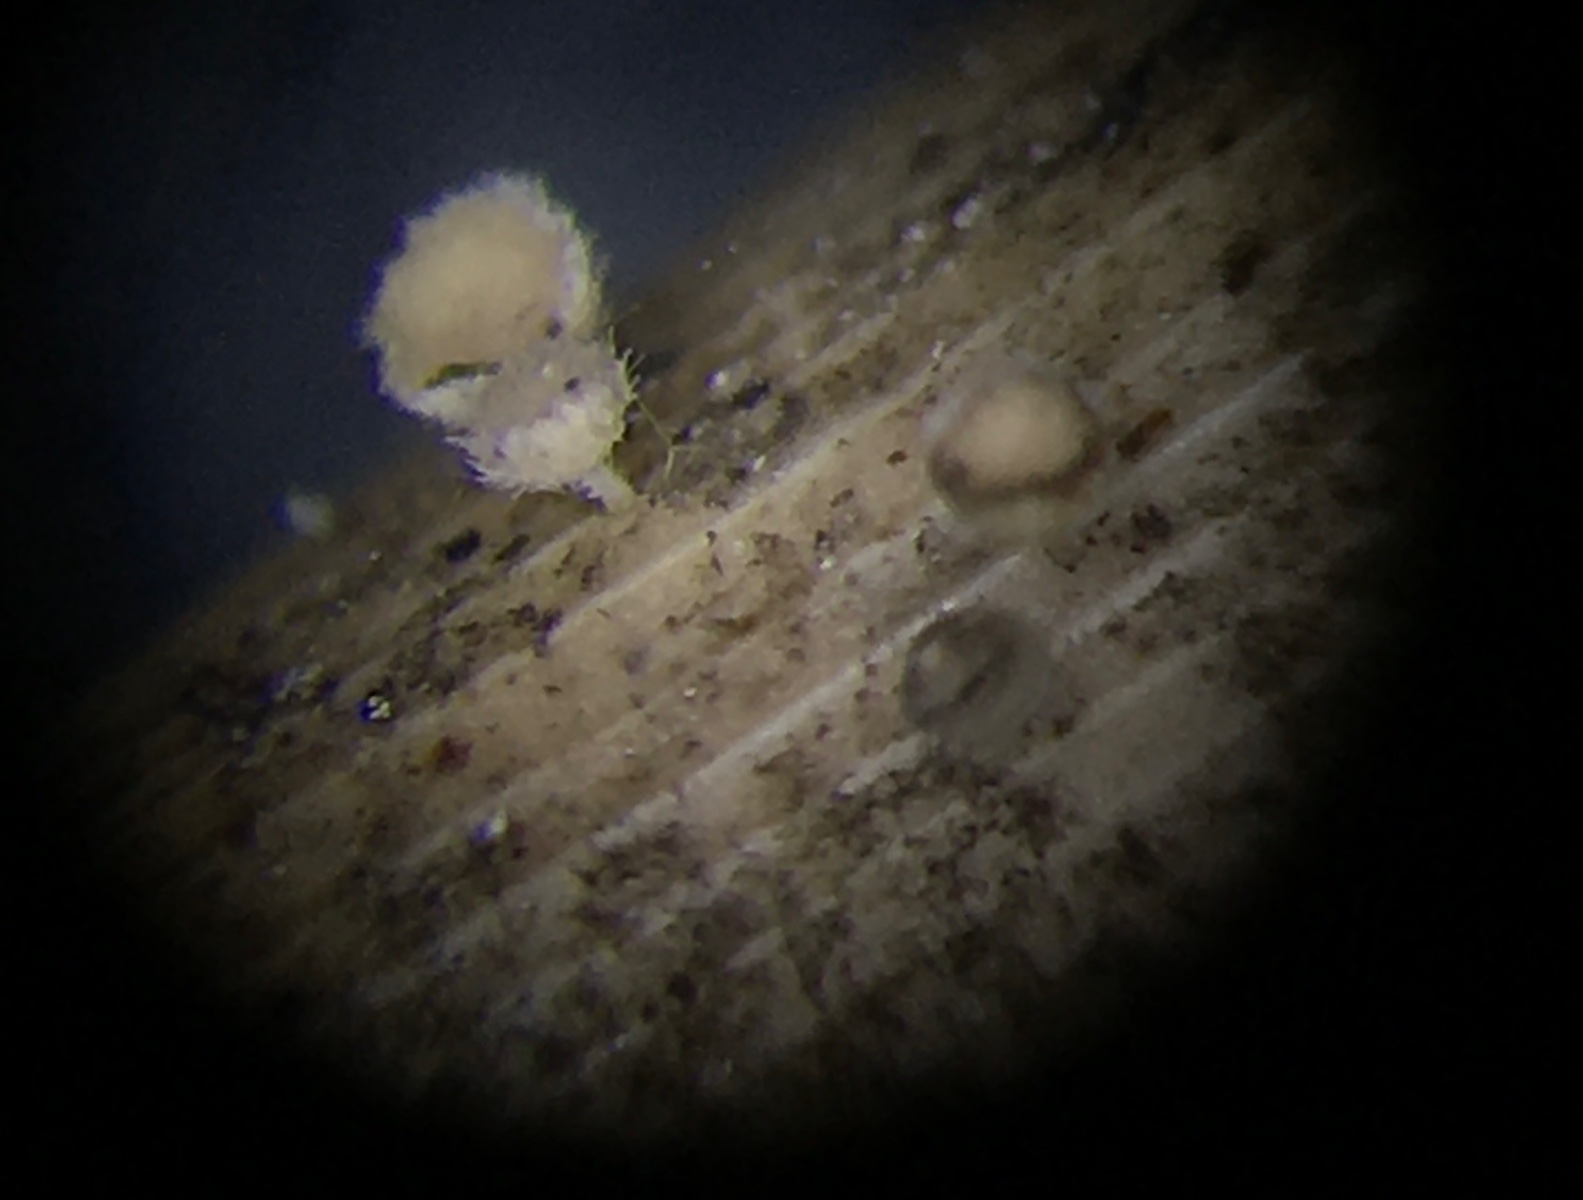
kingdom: Fungi
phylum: Ascomycota
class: Leotiomycetes
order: Helotiales
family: Lachnaceae
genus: Lachnum
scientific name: Lachnum apalum
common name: siv-frynseskive
